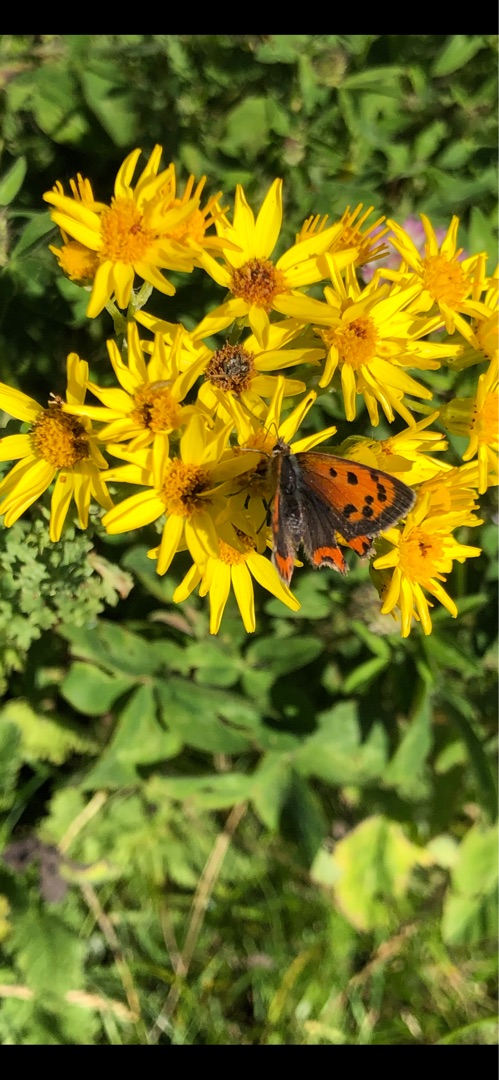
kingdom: Animalia
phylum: Arthropoda
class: Insecta
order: Lepidoptera
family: Lycaenidae
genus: Lycaena
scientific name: Lycaena phlaeas
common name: Lille ildfugl
